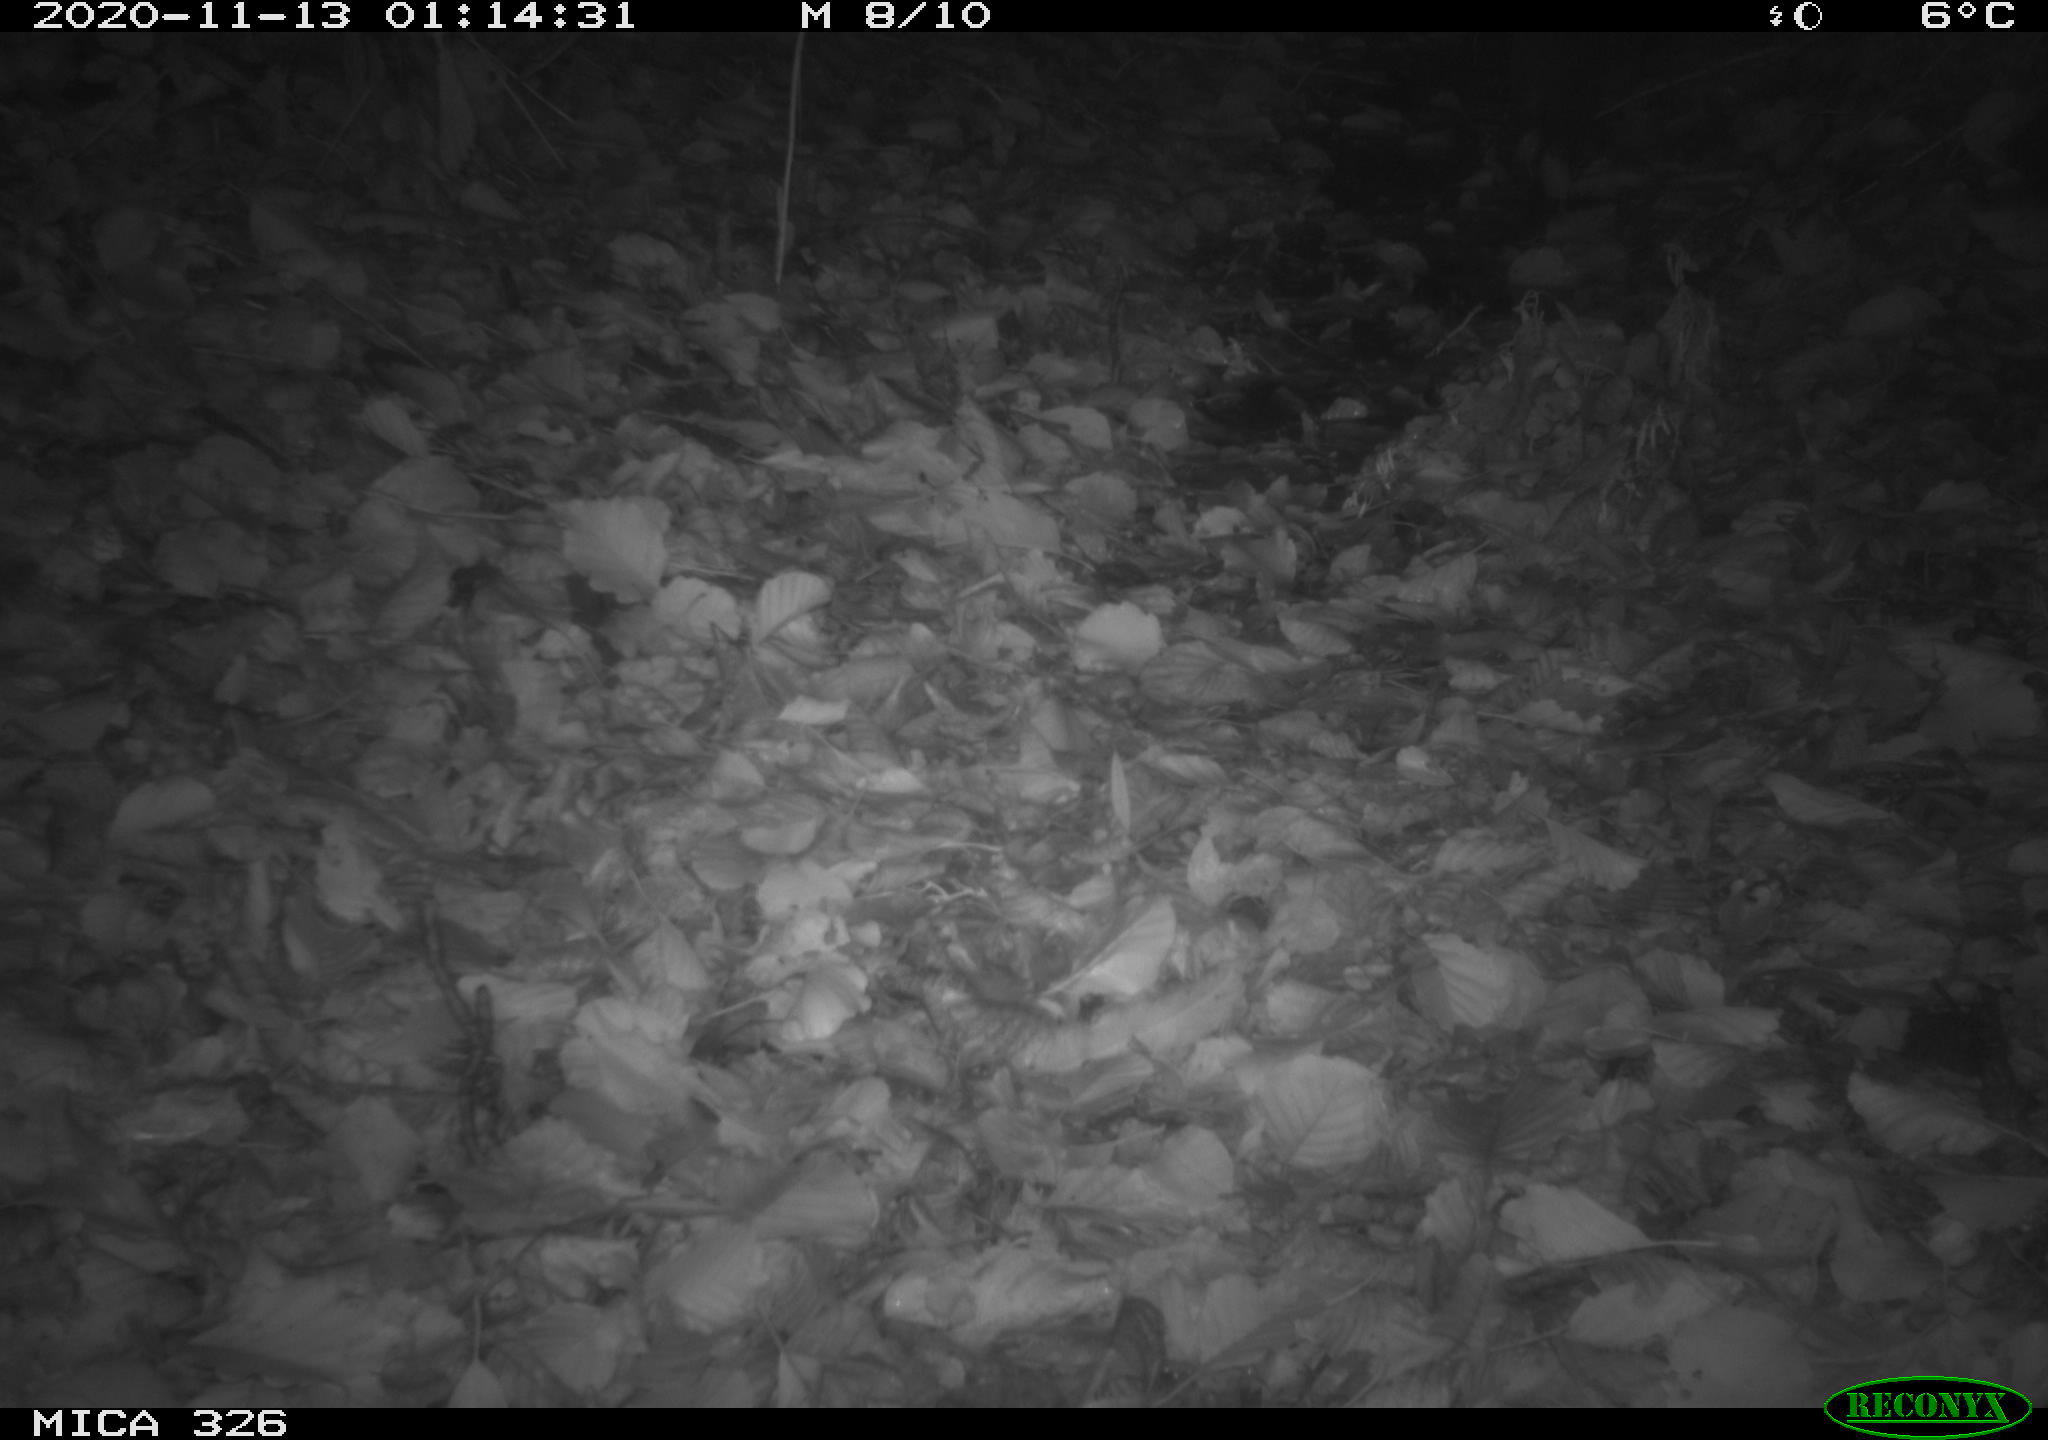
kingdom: Animalia
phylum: Chordata
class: Mammalia
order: Carnivora
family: Mustelidae
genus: Lutra
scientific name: Lutra lutra
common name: European otter
